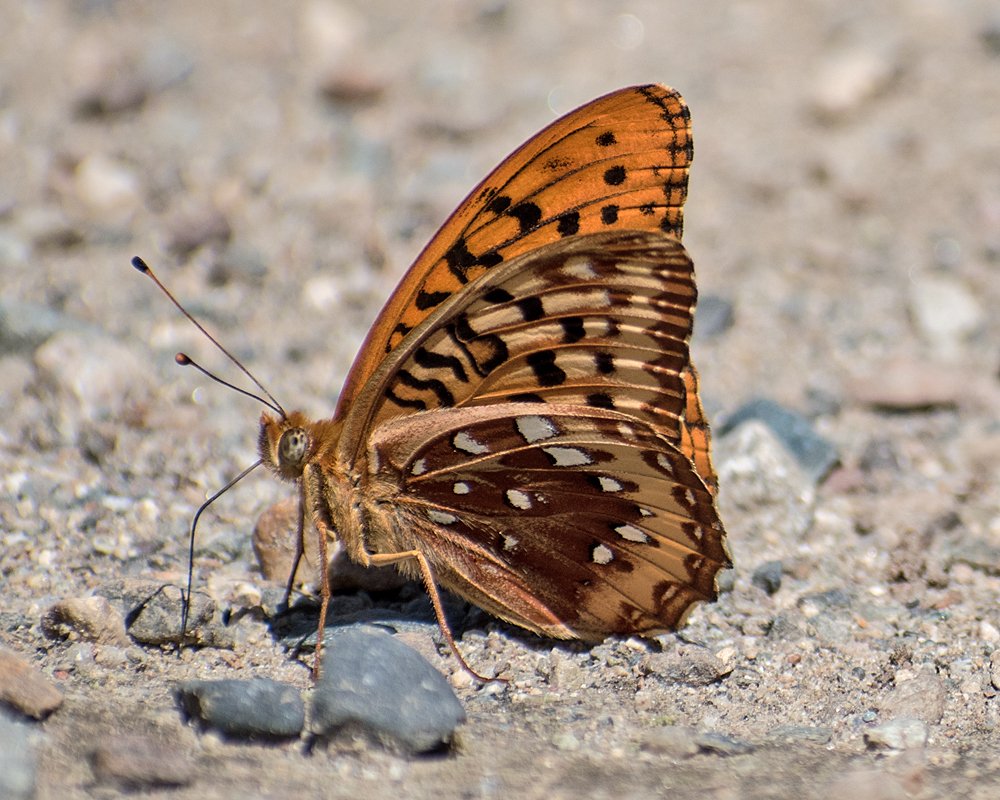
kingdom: Animalia
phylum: Arthropoda
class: Insecta
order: Lepidoptera
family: Nymphalidae
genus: Speyeria
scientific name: Speyeria cybele
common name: Great Spangled Fritillary
